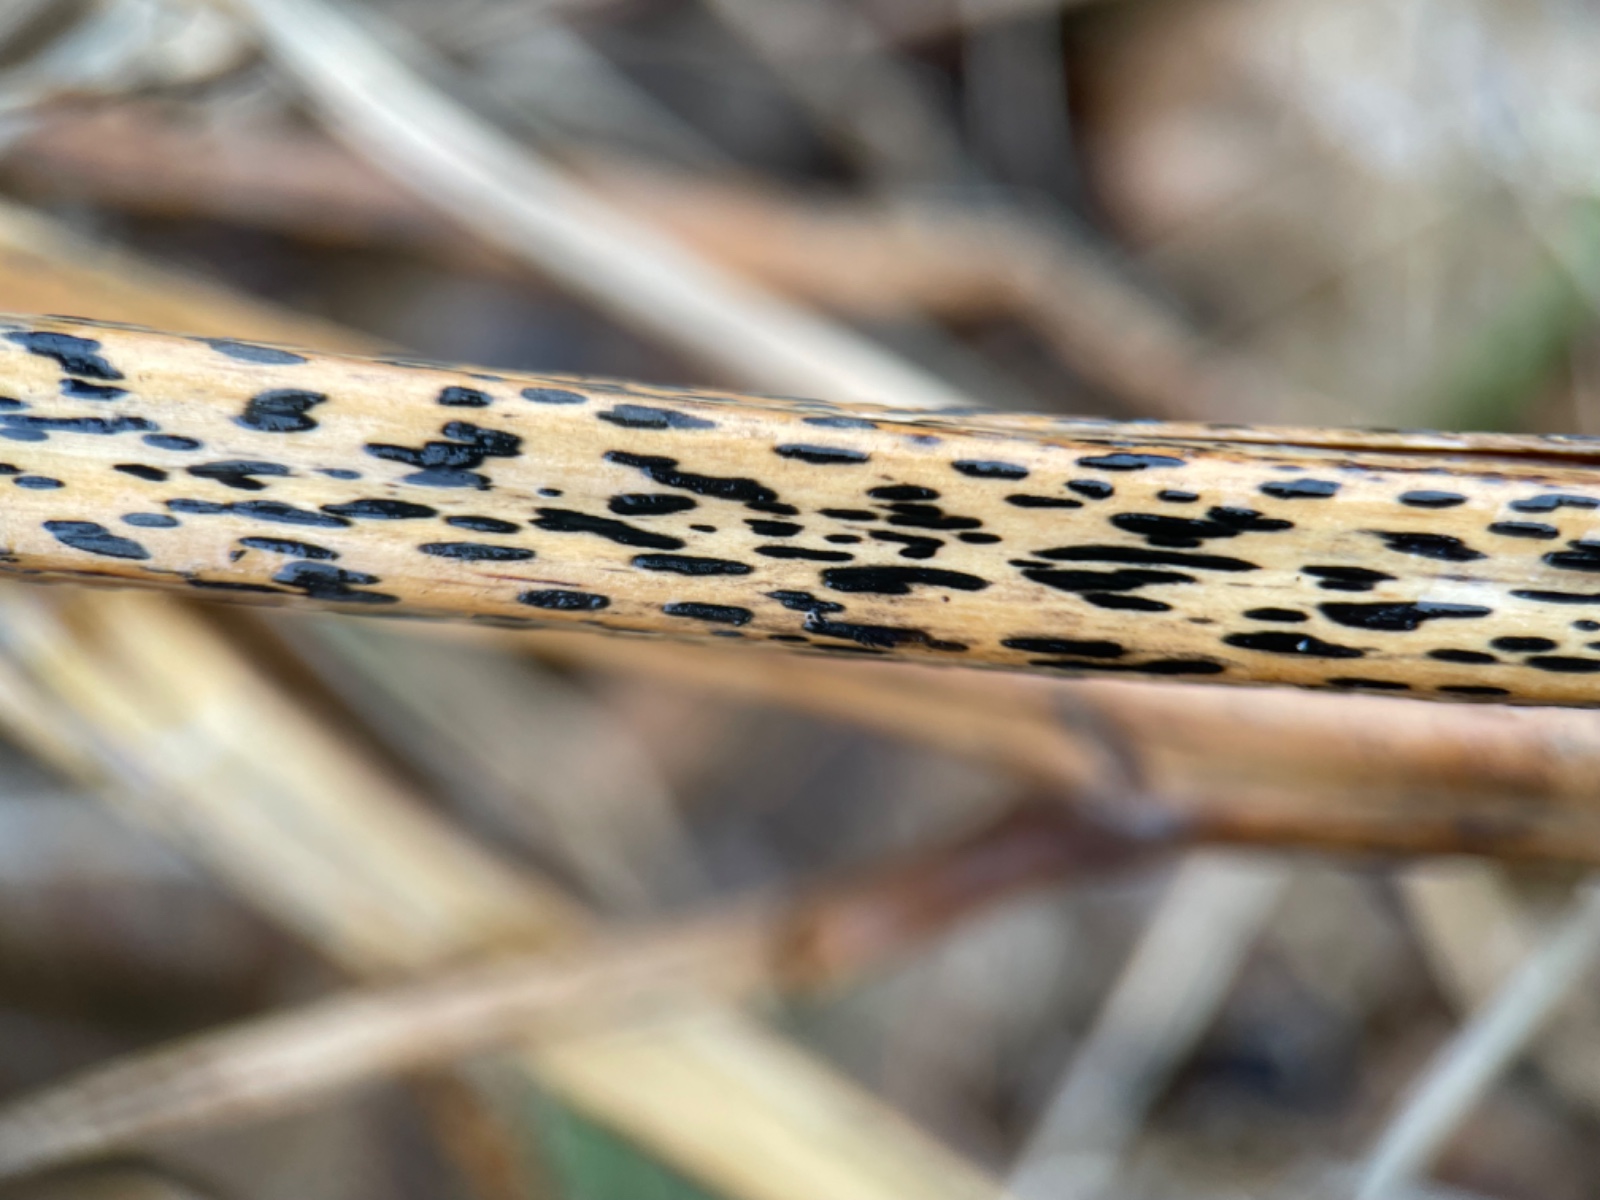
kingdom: Fungi
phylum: Ascomycota
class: Dothideomycetes
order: Pleosporales
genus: Rhopographus
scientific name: Rhopographus filicinus
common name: Bracken map
